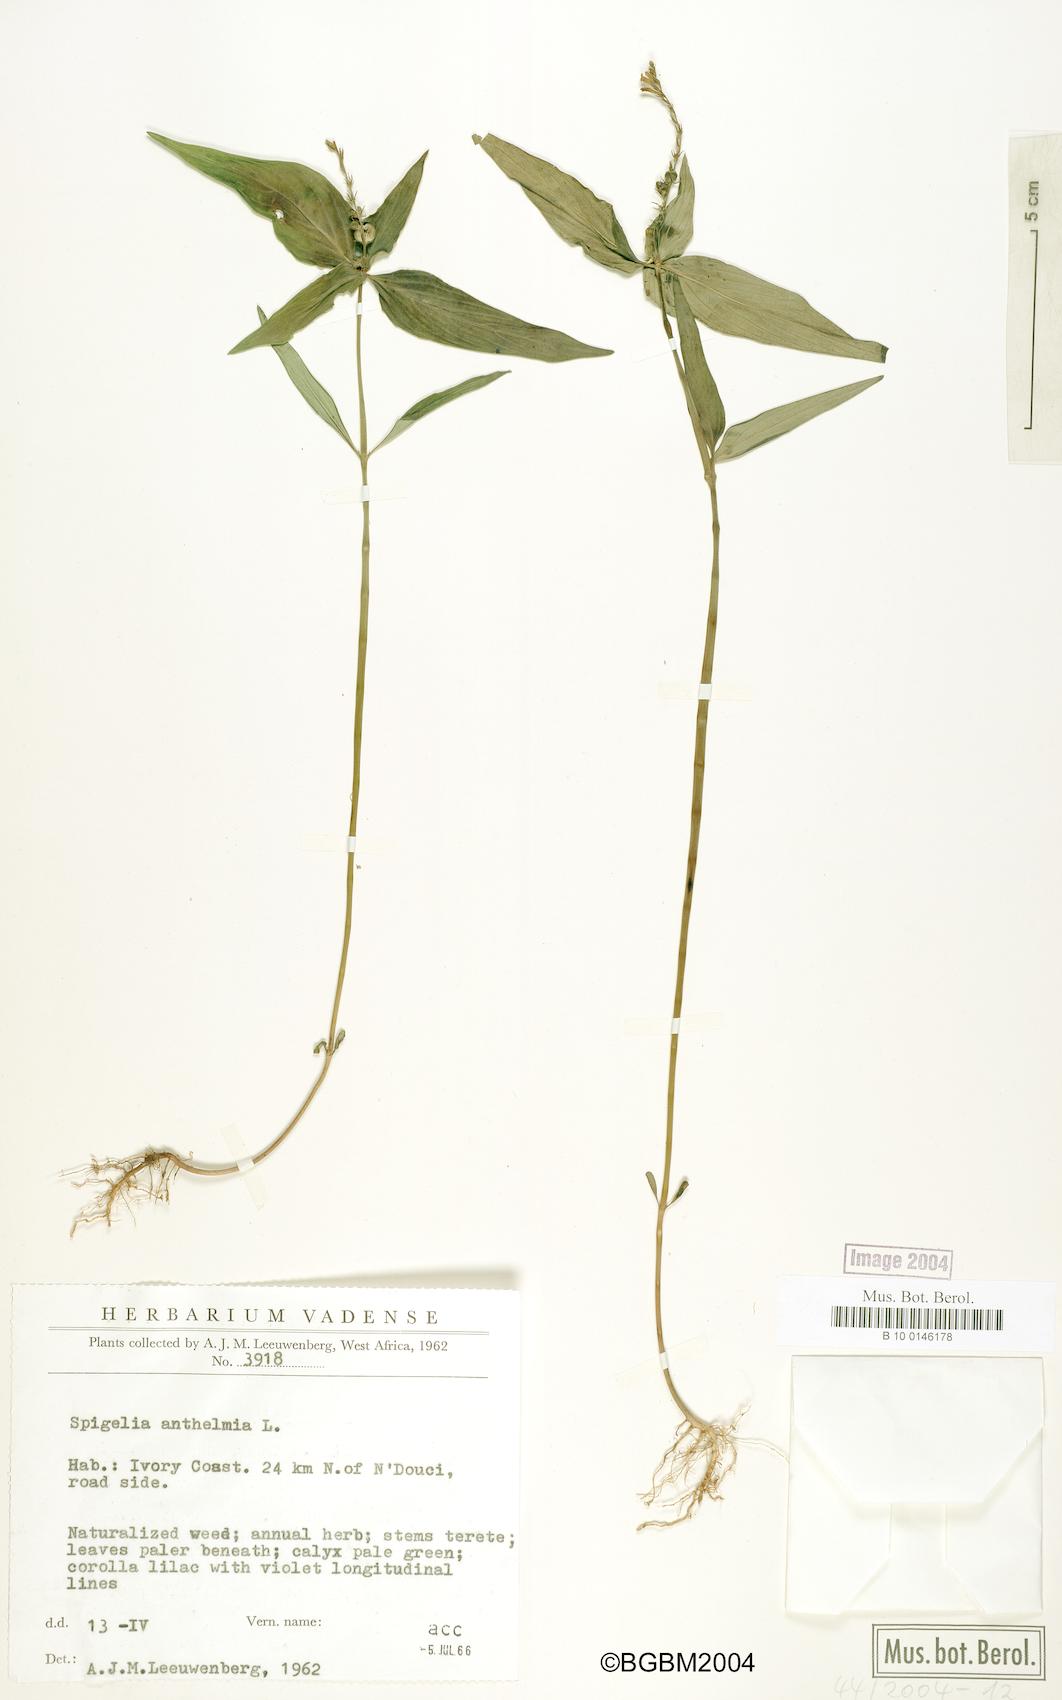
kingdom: Plantae
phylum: Tracheophyta
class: Magnoliopsida
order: Gentianales
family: Loganiaceae
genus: Spigelia
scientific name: Spigelia anthelmia
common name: West indian-pink
